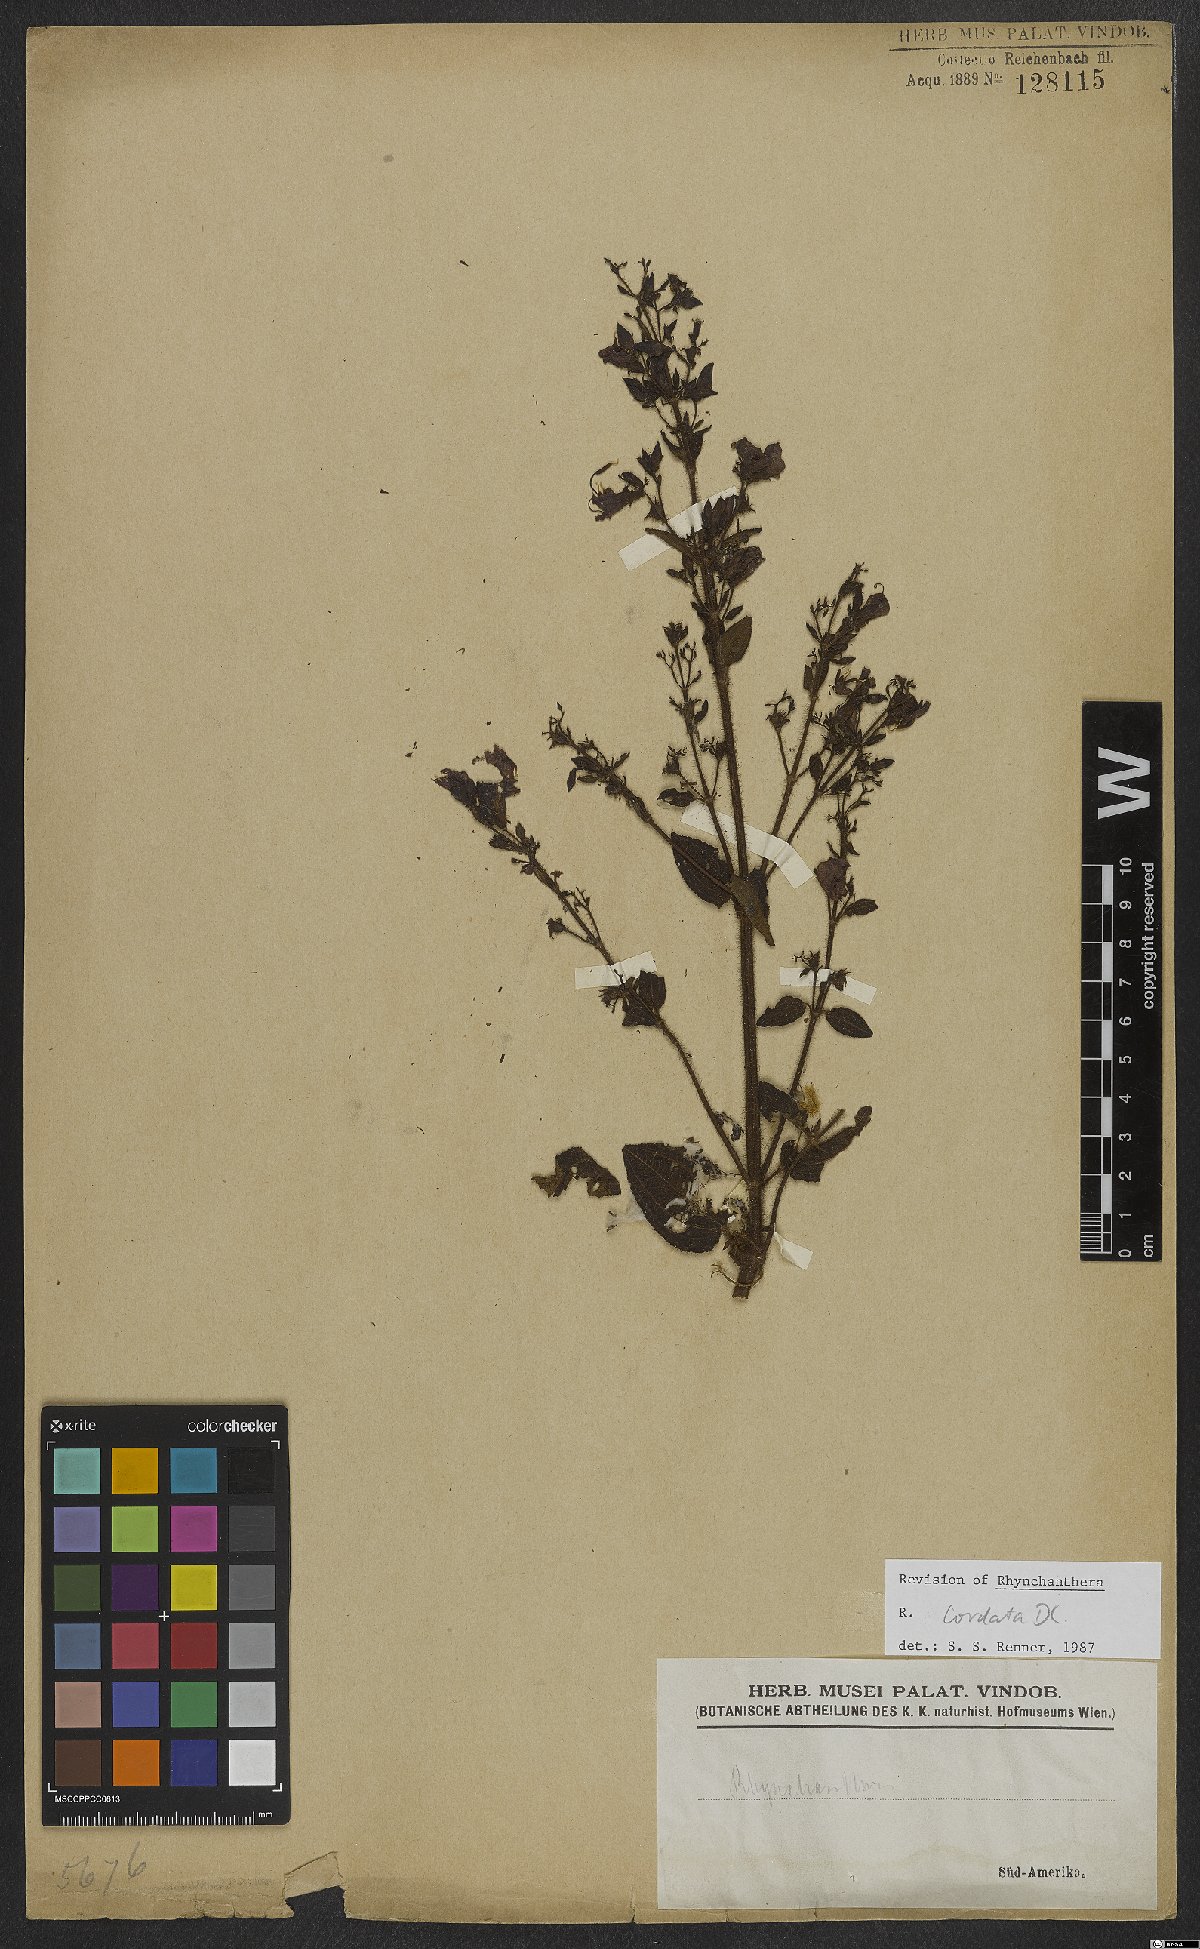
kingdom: Plantae
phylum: Tracheophyta
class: Magnoliopsida
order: Myrtales
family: Melastomataceae
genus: Rhynchanthera
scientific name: Rhynchanthera cordata
